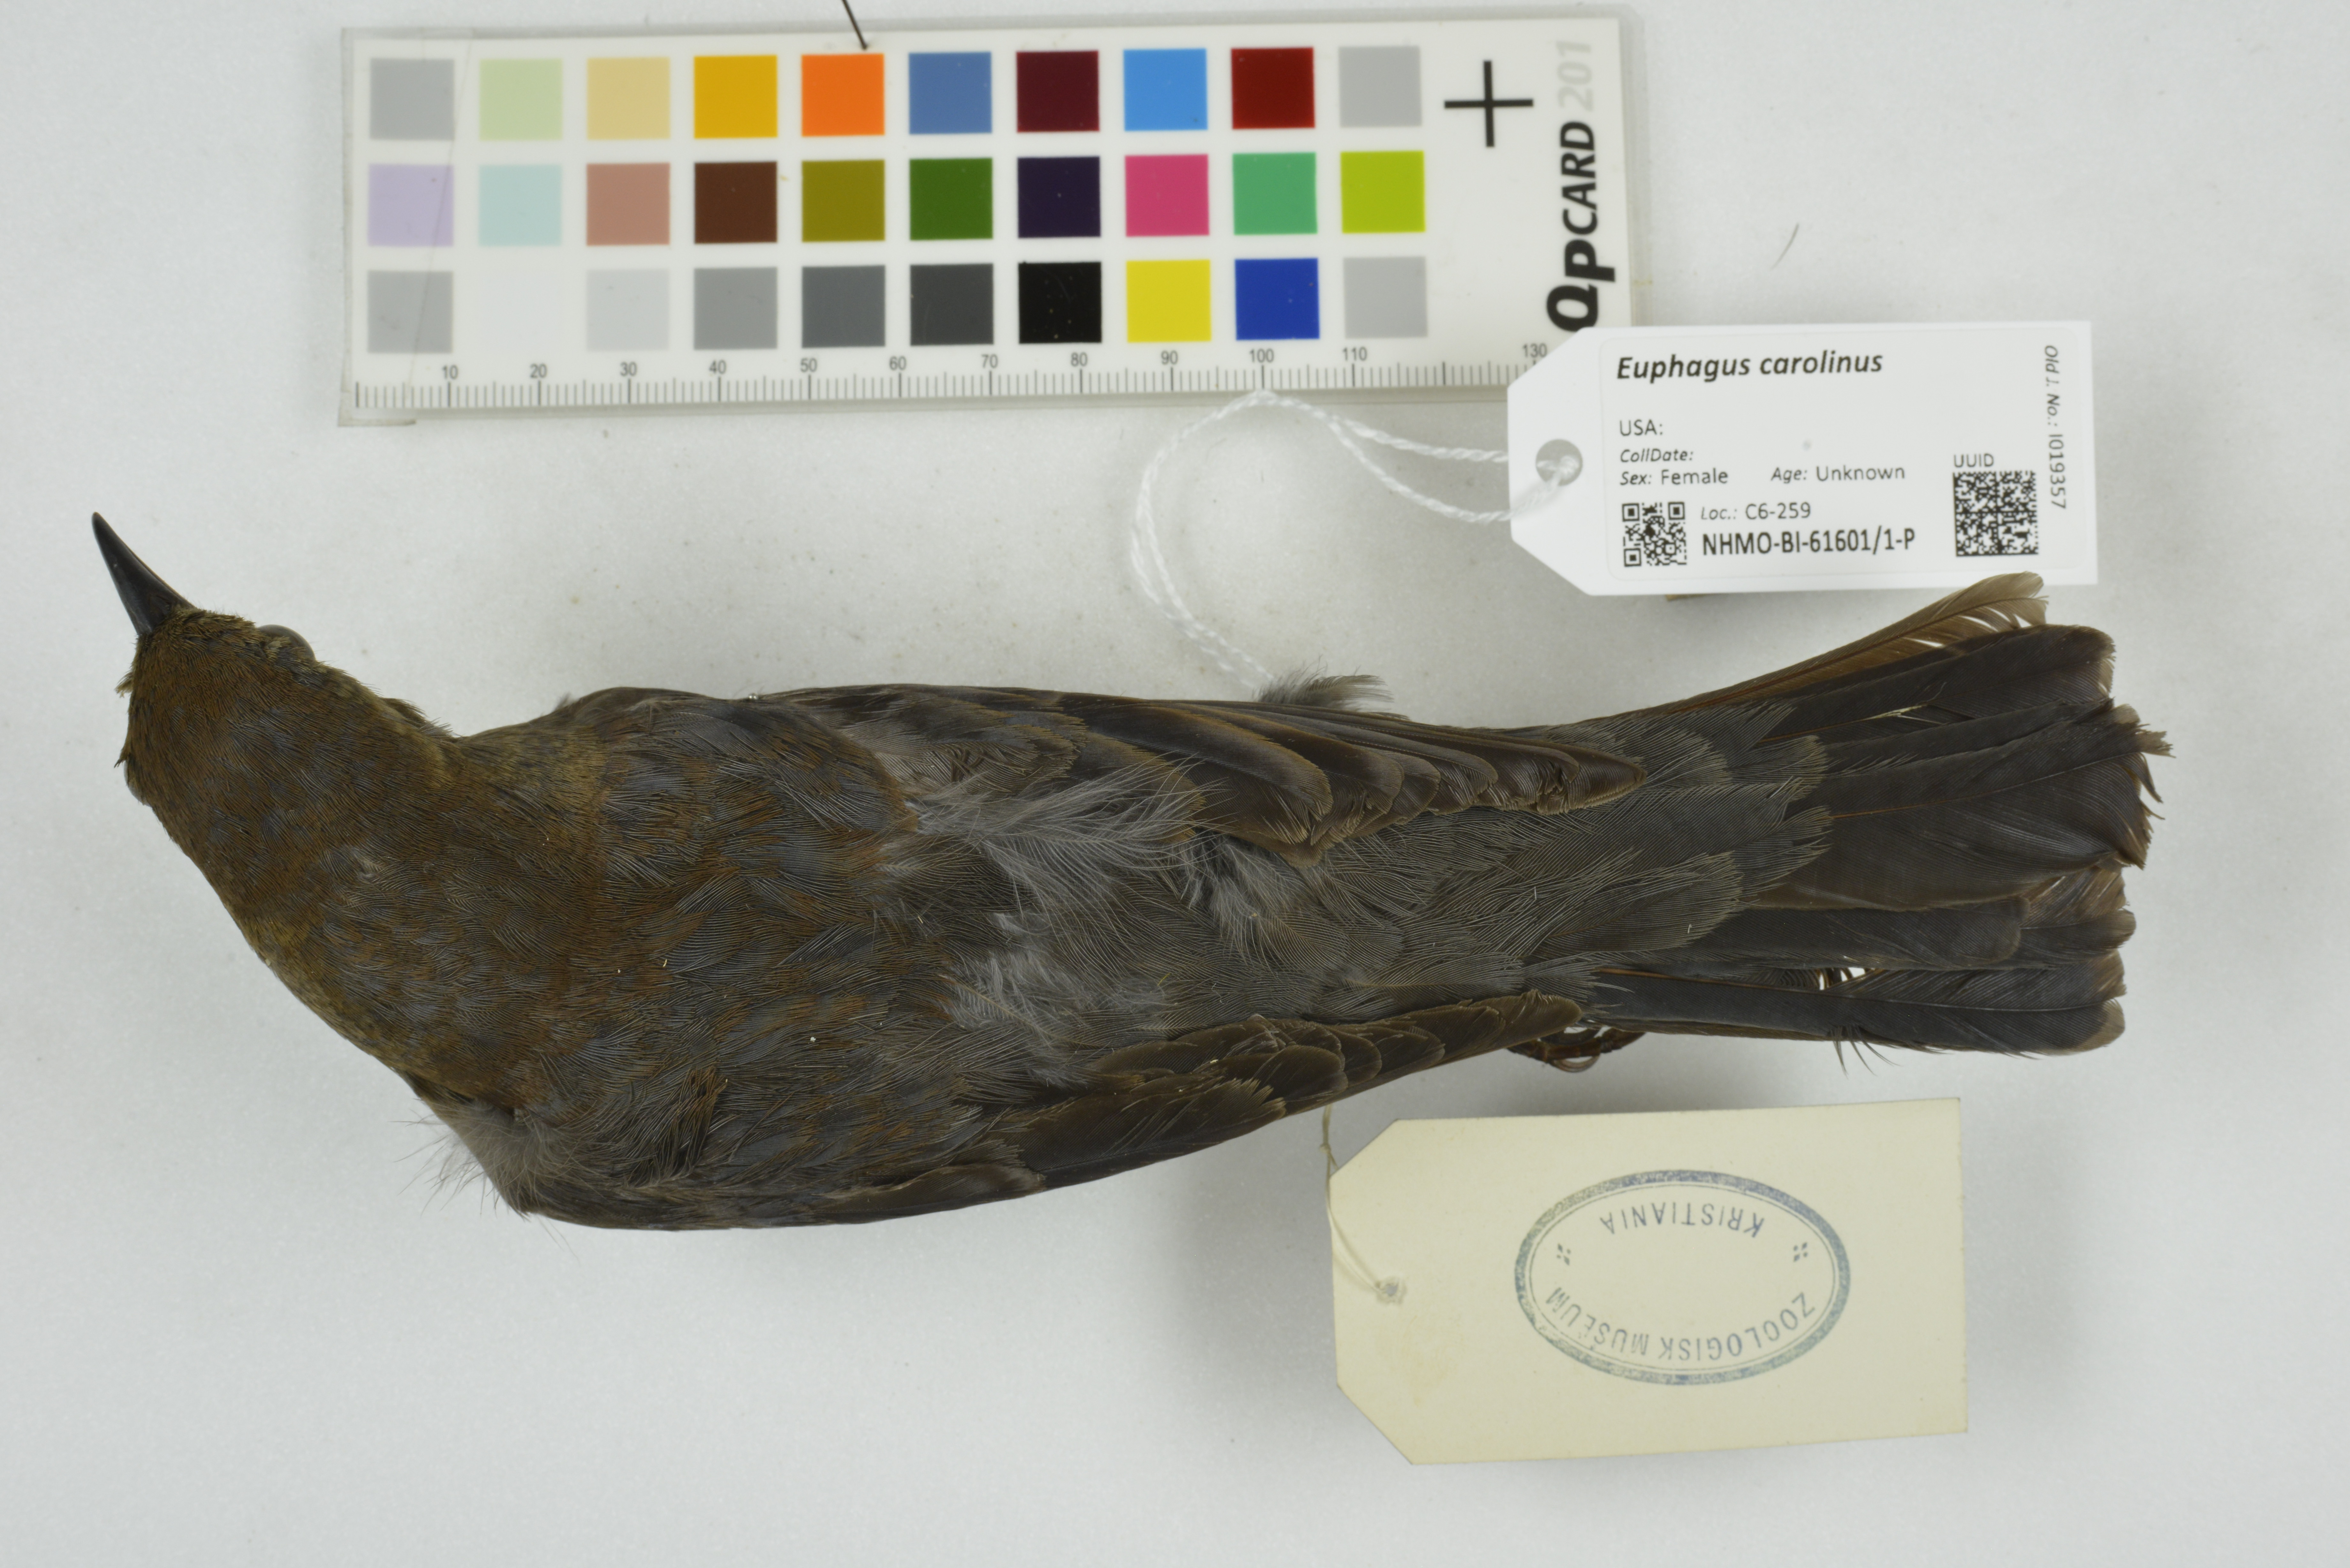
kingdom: Animalia
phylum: Chordata
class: Aves
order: Passeriformes
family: Icteridae
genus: Euphagus
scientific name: Euphagus carolinus
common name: Rusty blackbird
